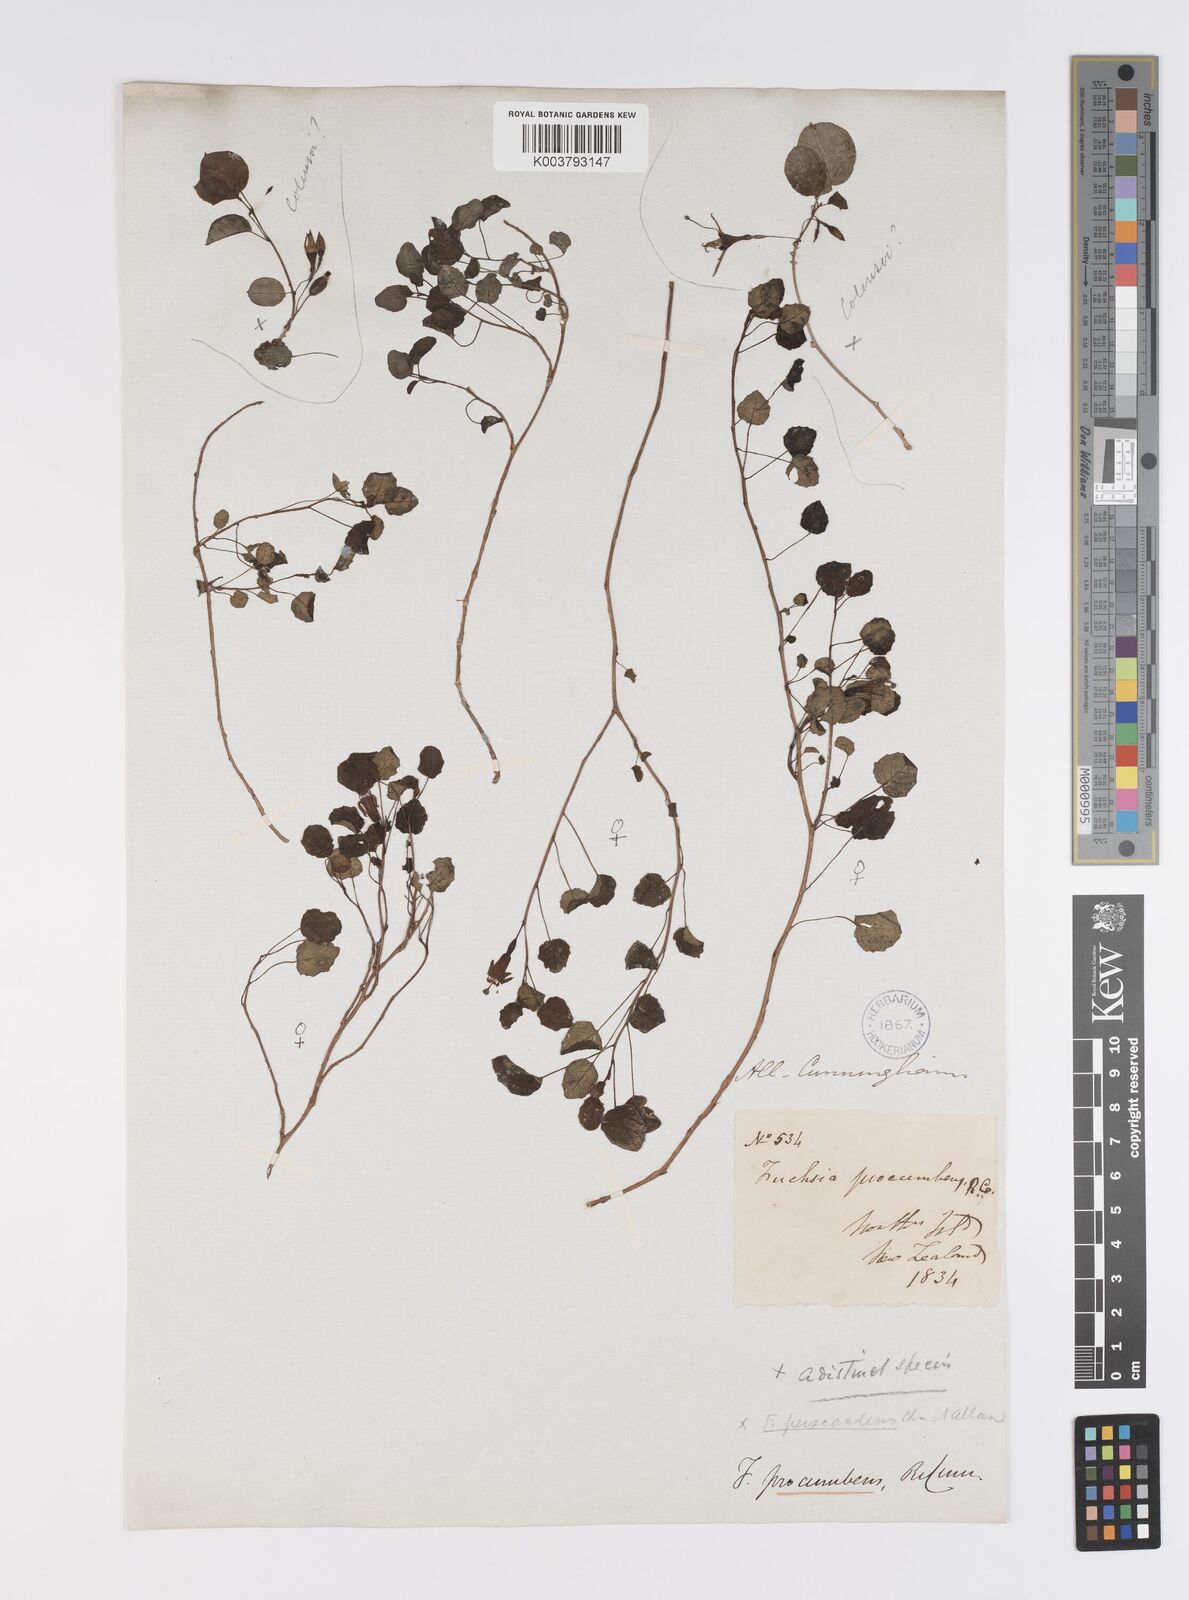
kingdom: Plantae
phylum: Tracheophyta
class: Magnoliopsida
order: Myrtales
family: Onagraceae
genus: Fuchsia
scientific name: Fuchsia procumbens
